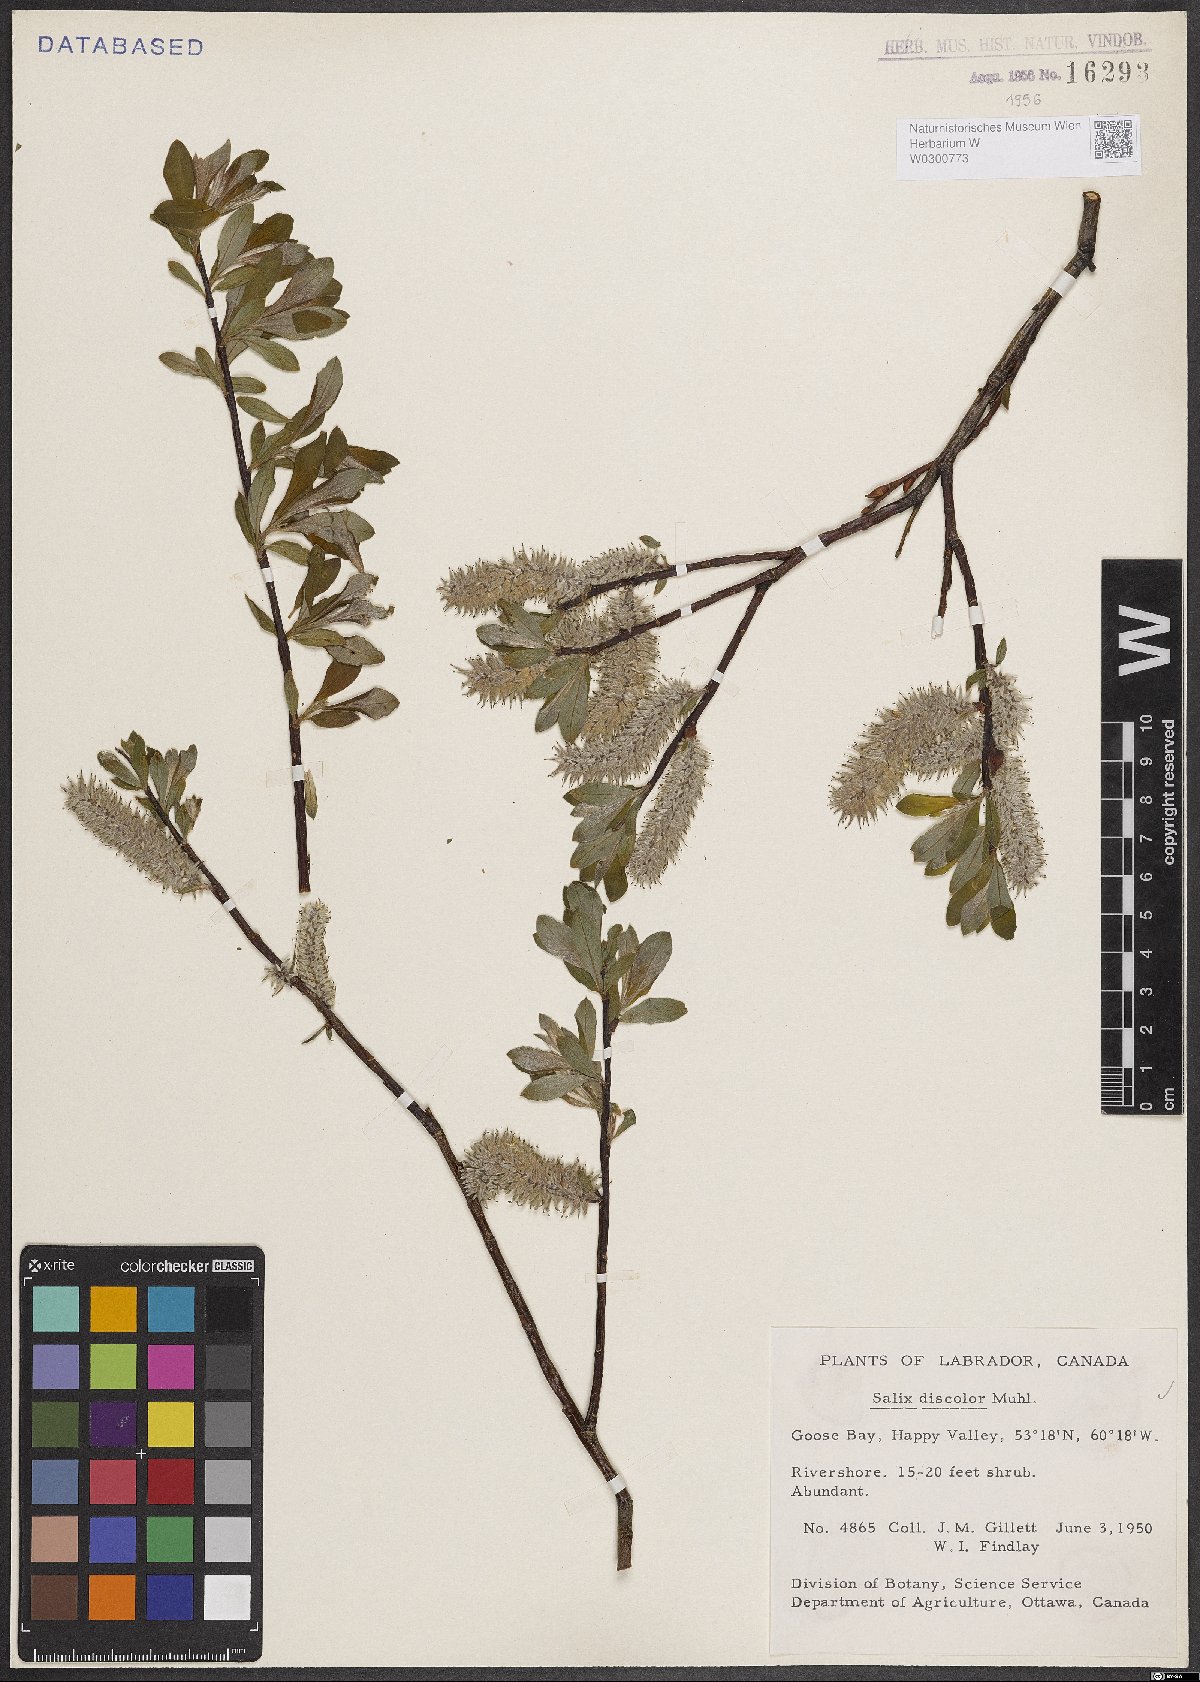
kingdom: Plantae
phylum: Tracheophyta
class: Magnoliopsida
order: Malpighiales
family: Salicaceae
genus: Salix
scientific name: Salix discolor
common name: Glaucous willow
